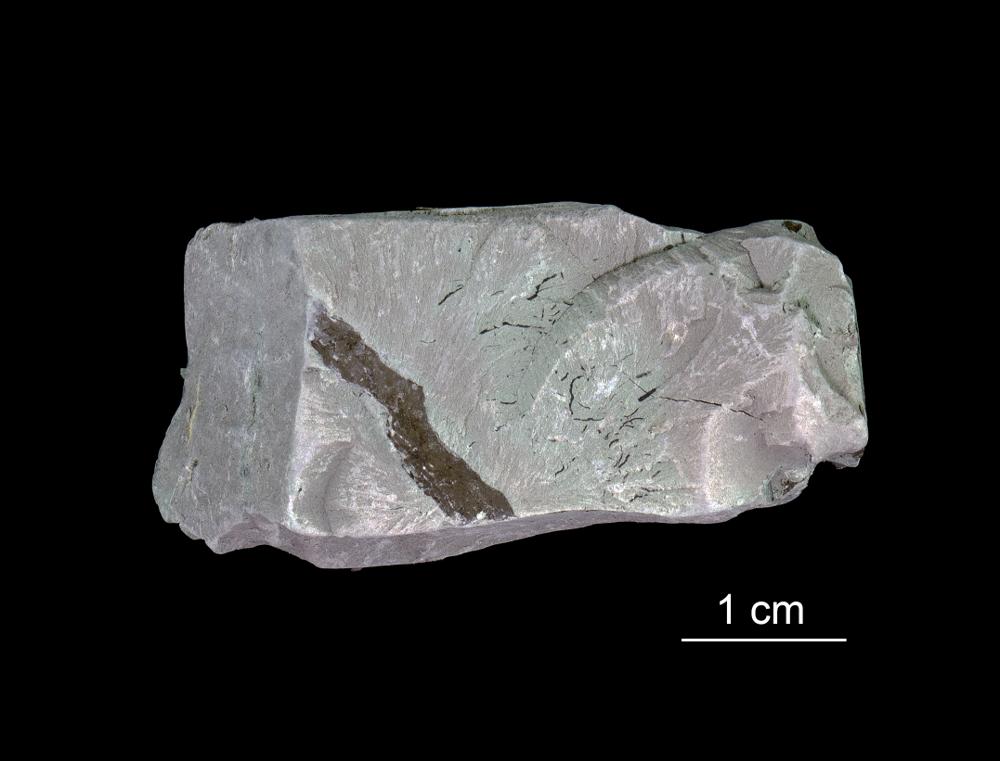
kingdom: Chromista
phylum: Foraminifera
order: Astrorhizida
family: Hyperamminidae
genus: Platysolenites
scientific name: Platysolenites antiquissimus
